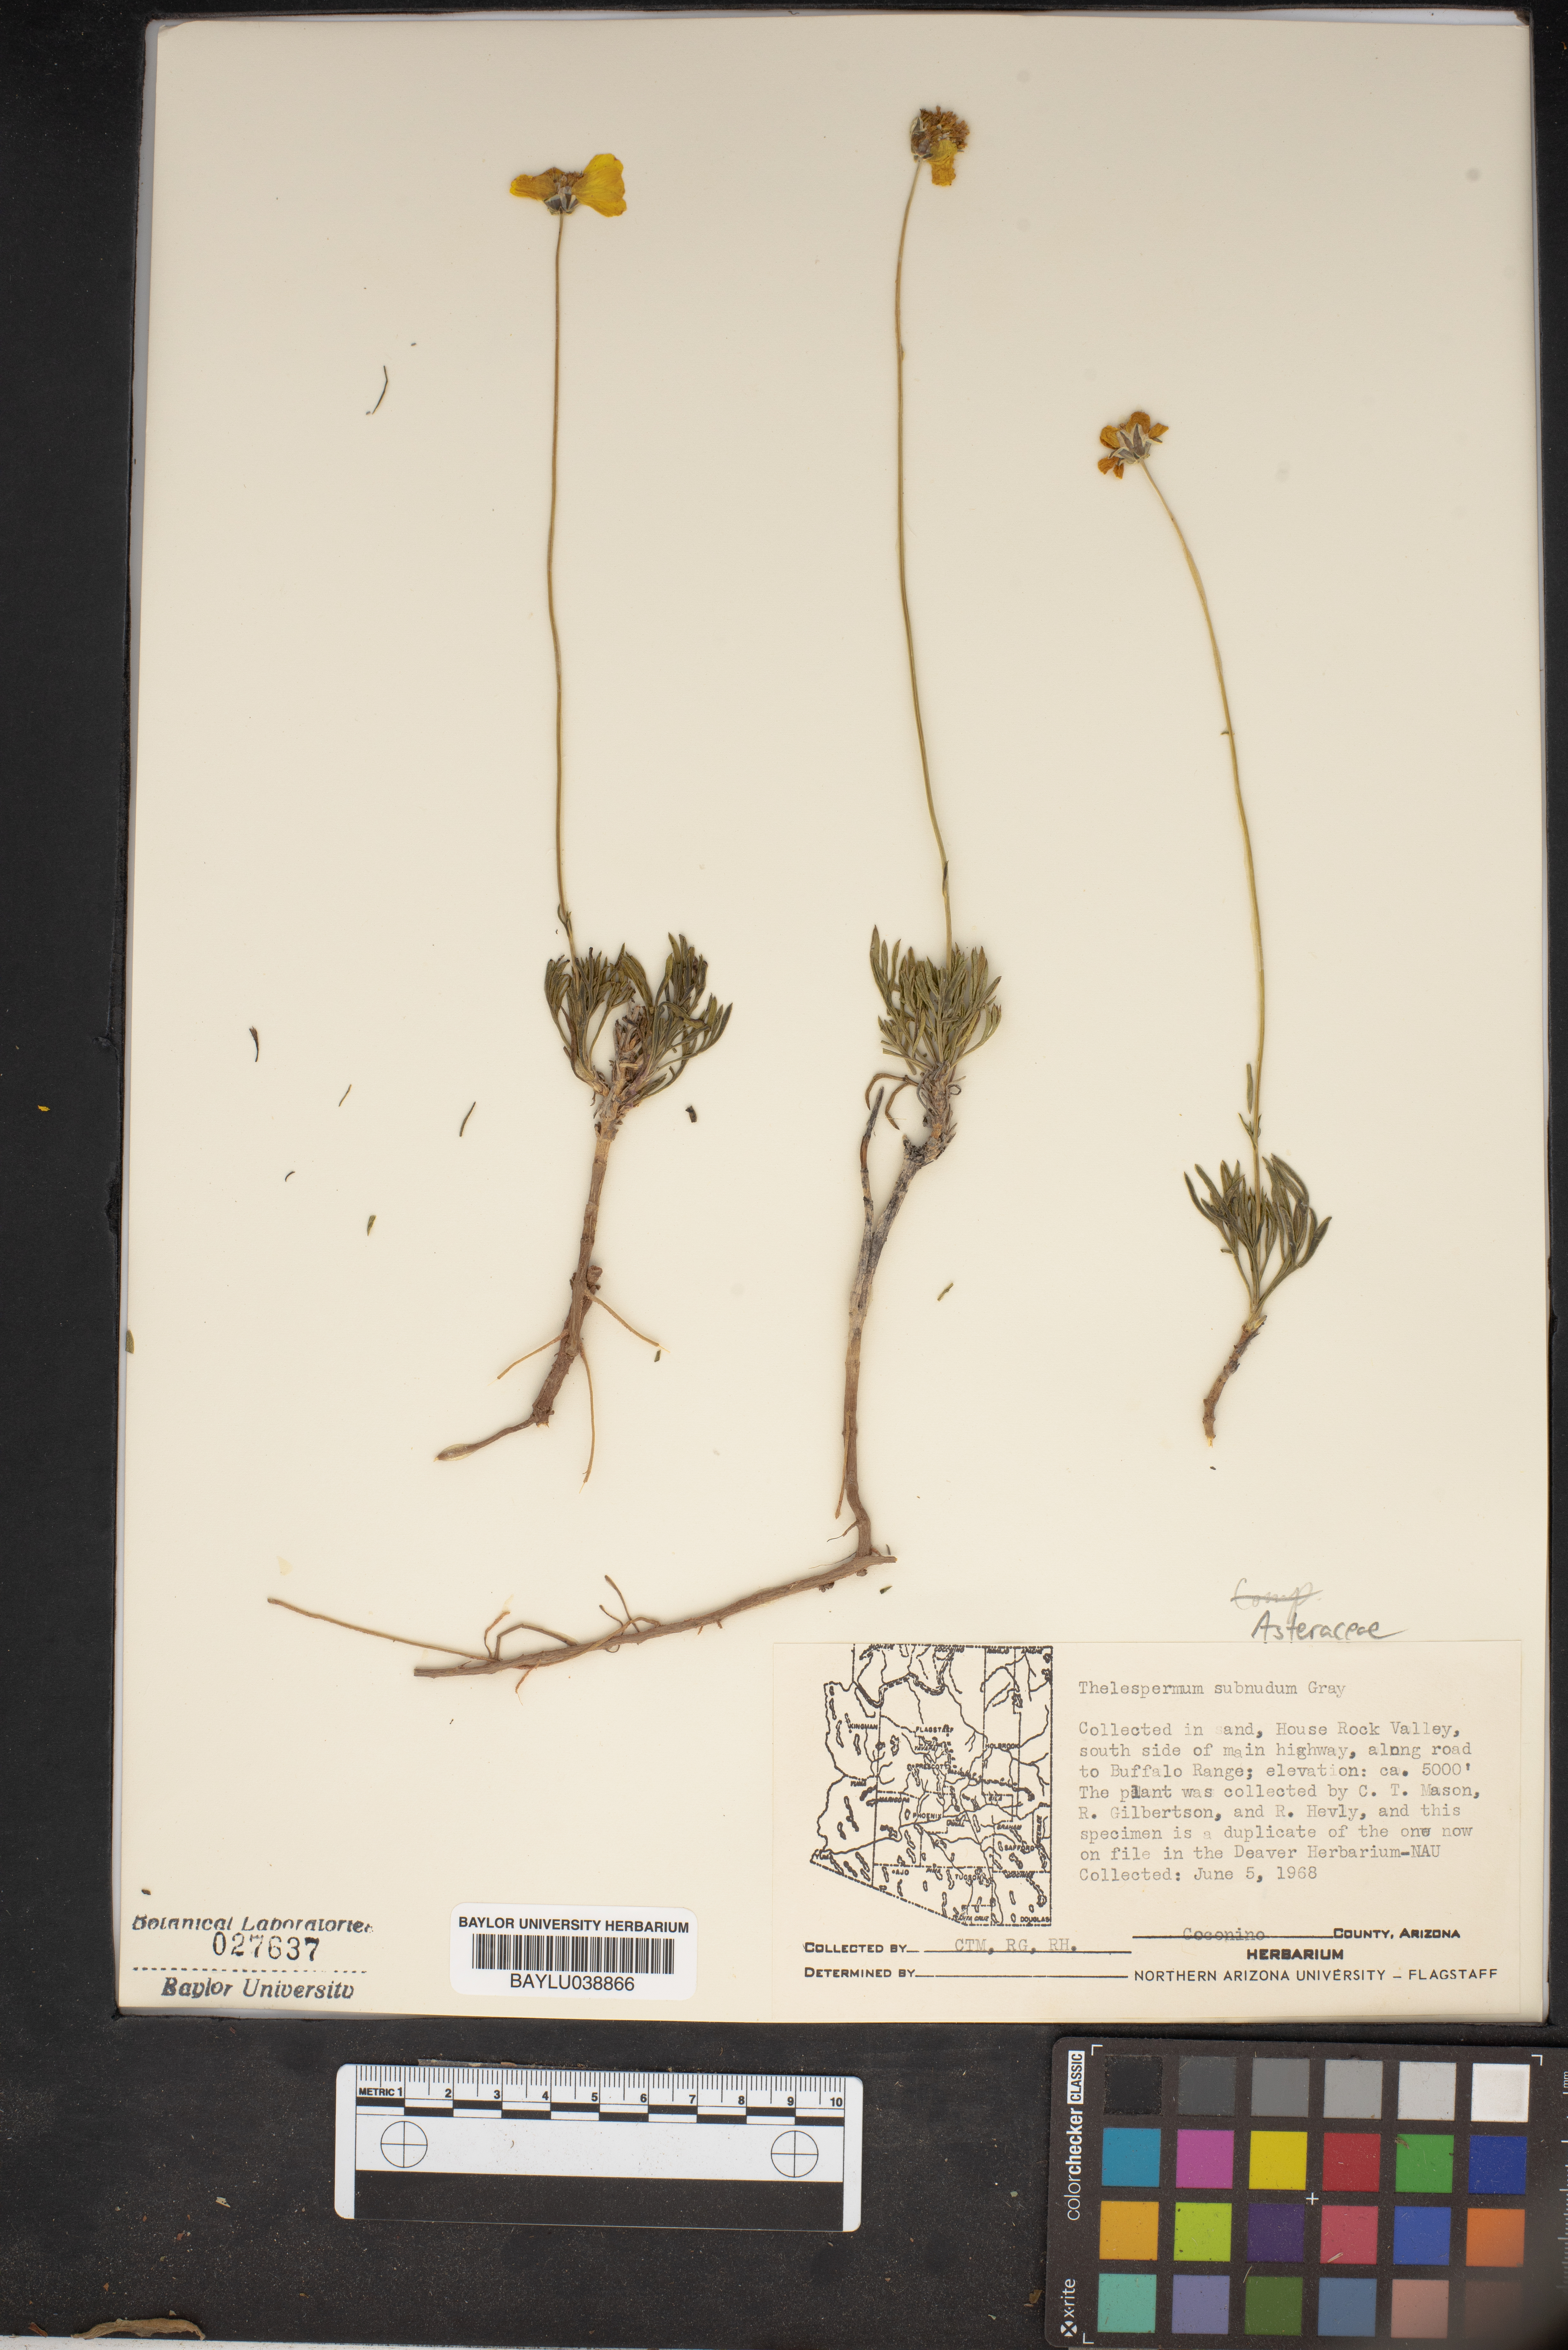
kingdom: Plantae
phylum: Tracheophyta
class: Magnoliopsida
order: Asterales
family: Asteraceae
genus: Thelesperma
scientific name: Thelesperma subnudum
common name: Navajo tea
